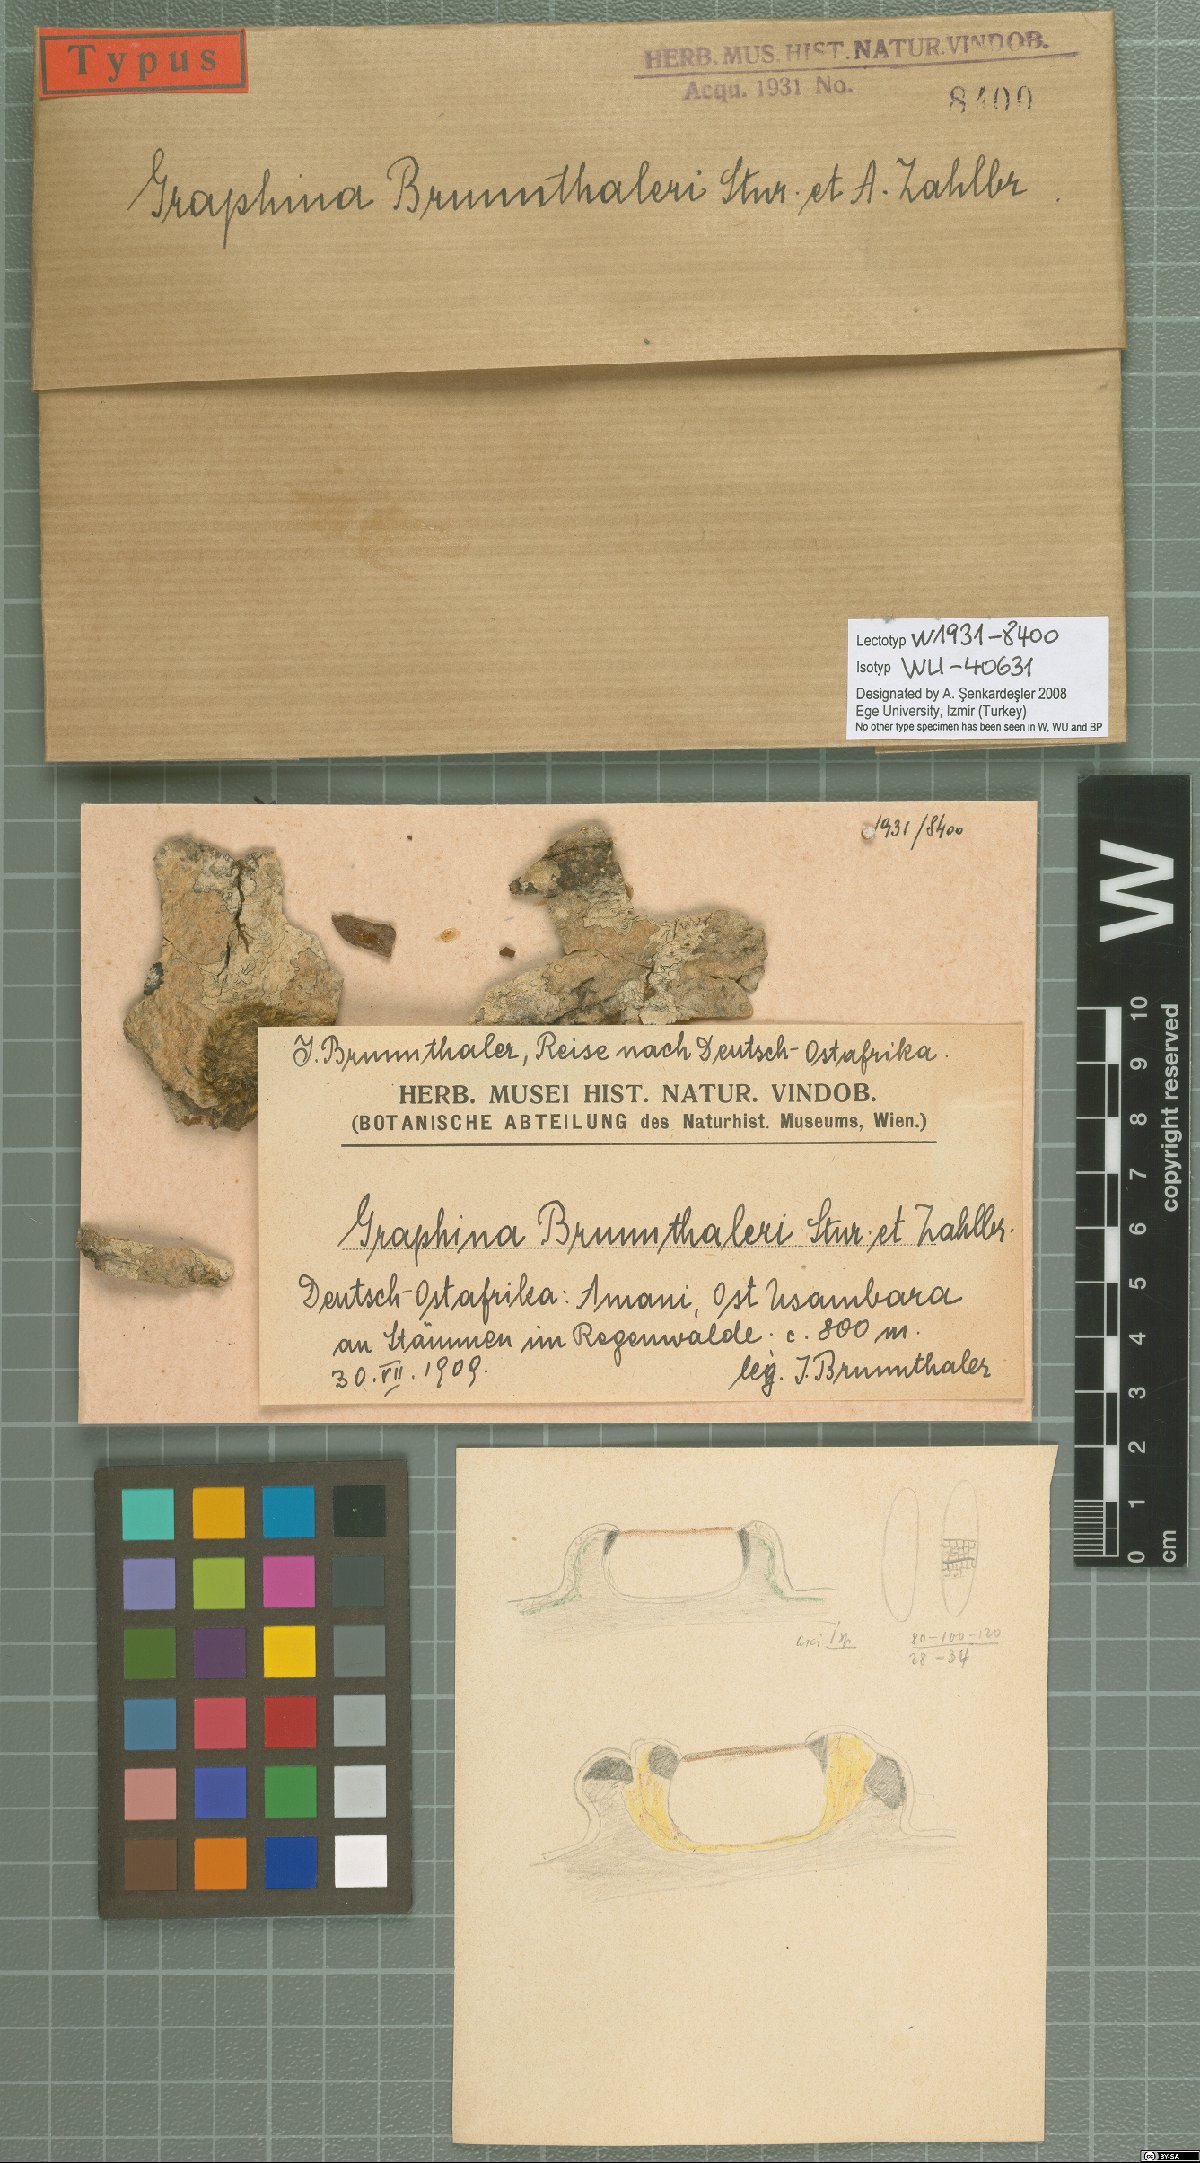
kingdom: Fungi
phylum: Ascomycota
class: Lecanoromycetes
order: Ostropales
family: Graphidaceae
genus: Graphina
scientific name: Graphina
